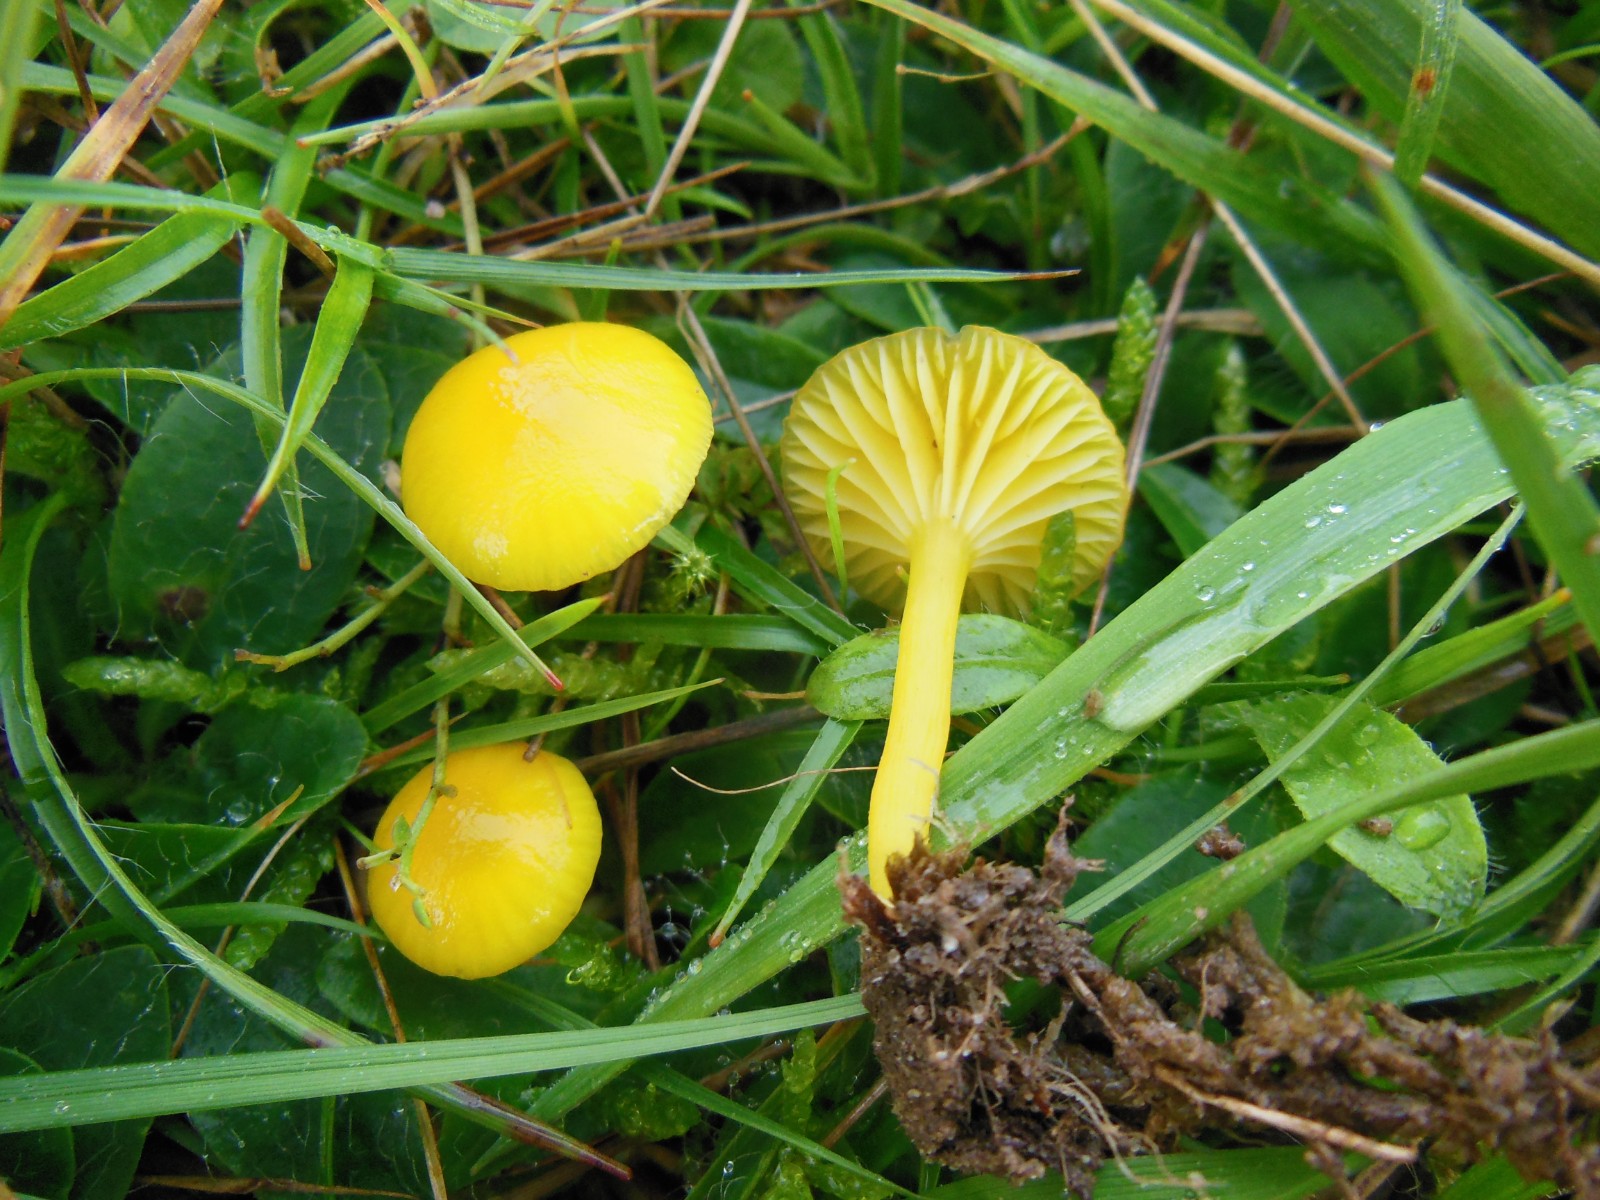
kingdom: Fungi
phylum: Basidiomycota
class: Agaricomycetes
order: Agaricales
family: Hygrophoraceae
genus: Hygrocybe
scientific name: Hygrocybe ceracea
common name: voksgul vokshat
